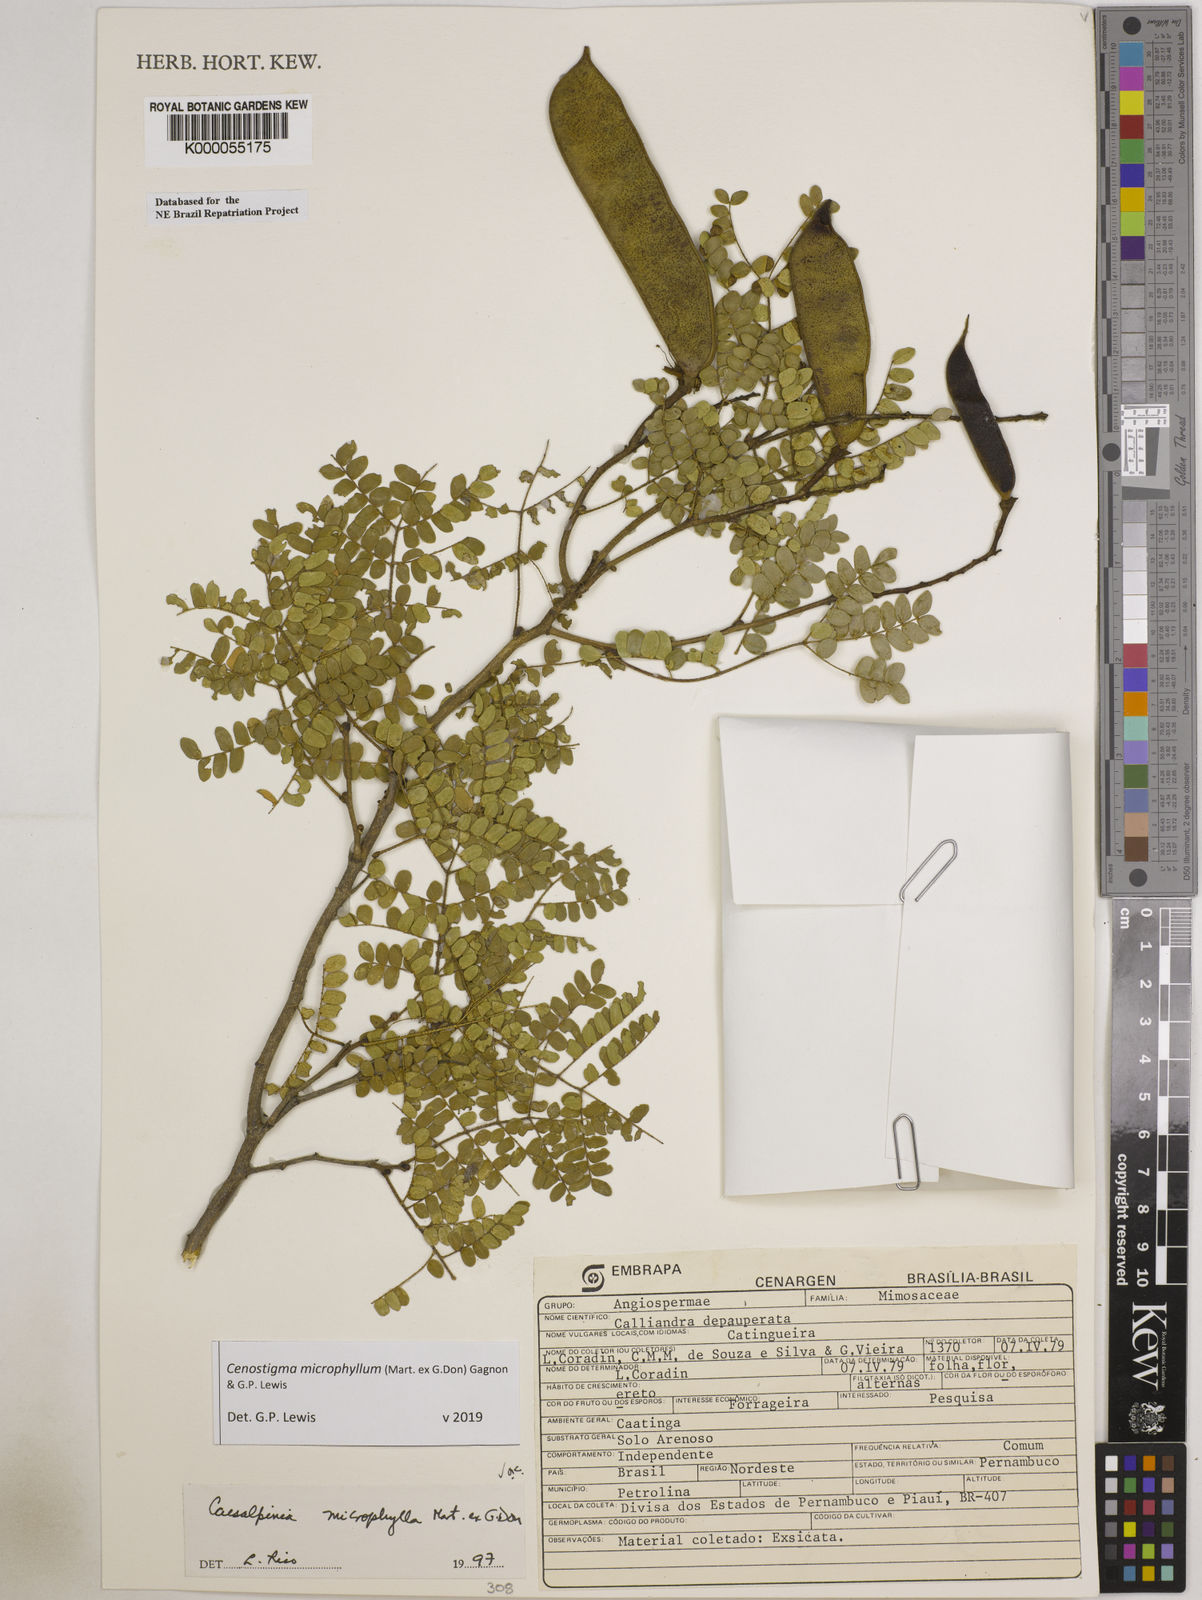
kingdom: Plantae
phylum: Tracheophyta
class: Magnoliopsida
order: Fabales
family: Fabaceae
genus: Cenostigma
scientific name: Cenostigma microphyllum
